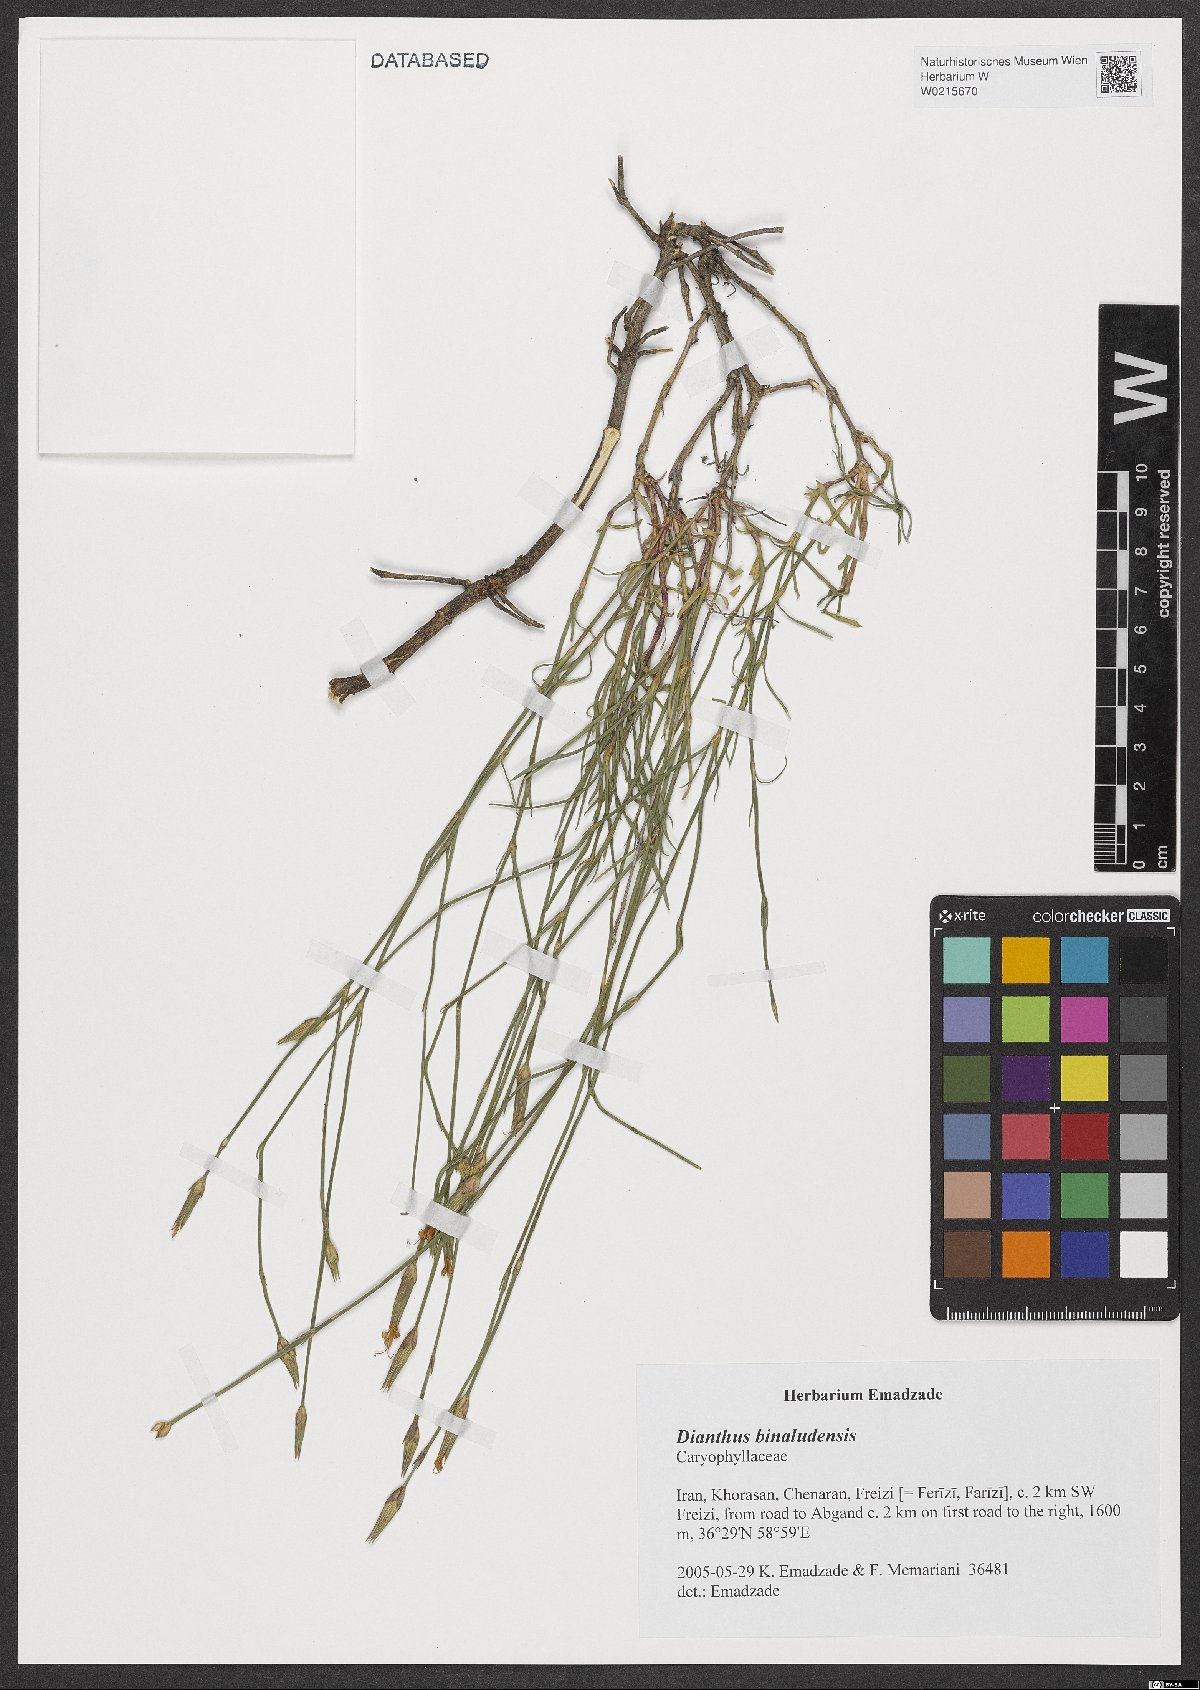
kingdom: Plantae
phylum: Tracheophyta
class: Magnoliopsida
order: Caryophyllales
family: Caryophyllaceae
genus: Dianthus
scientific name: Dianthus polylepis
